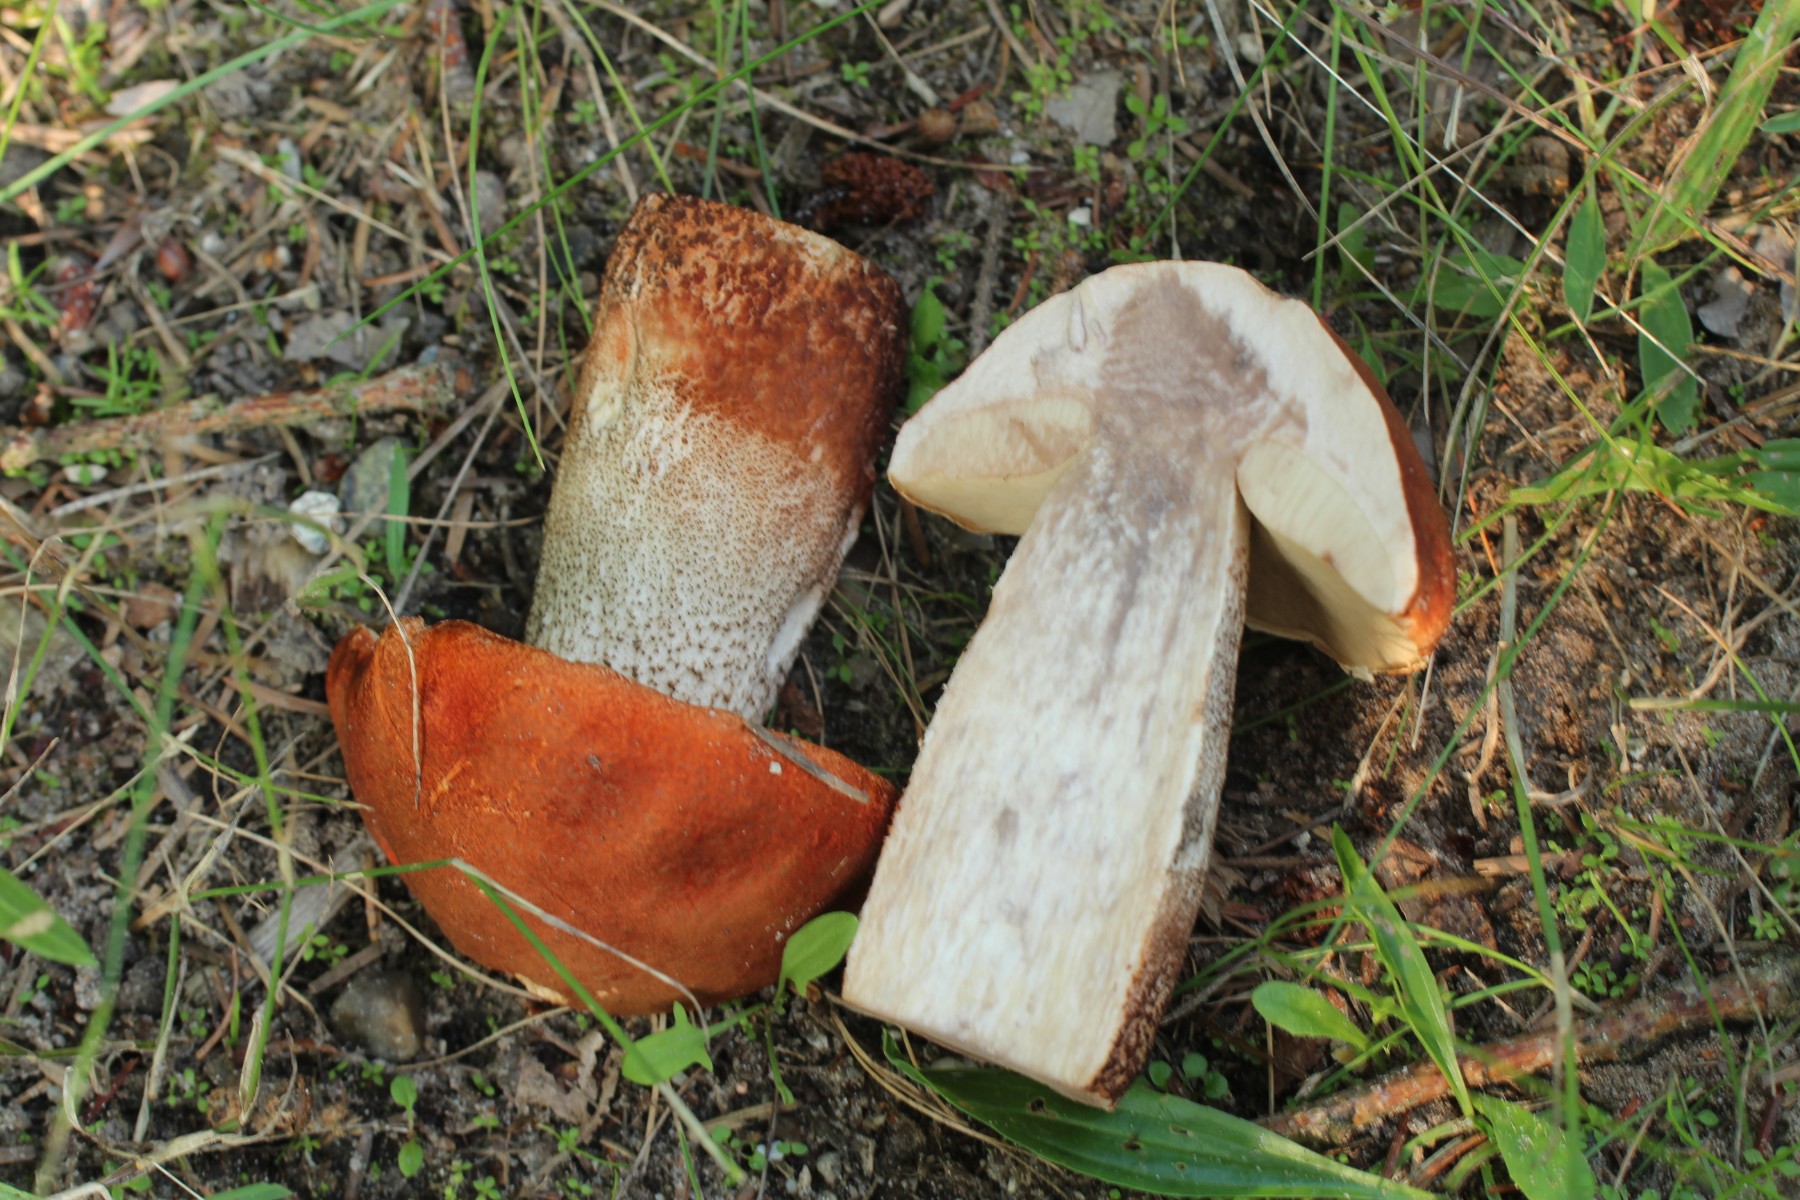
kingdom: Fungi
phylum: Basidiomycota
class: Agaricomycetes
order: Boletales
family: Boletaceae
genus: Leccinum
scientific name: Leccinum aurantiacum
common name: rustrød skælrørhat
